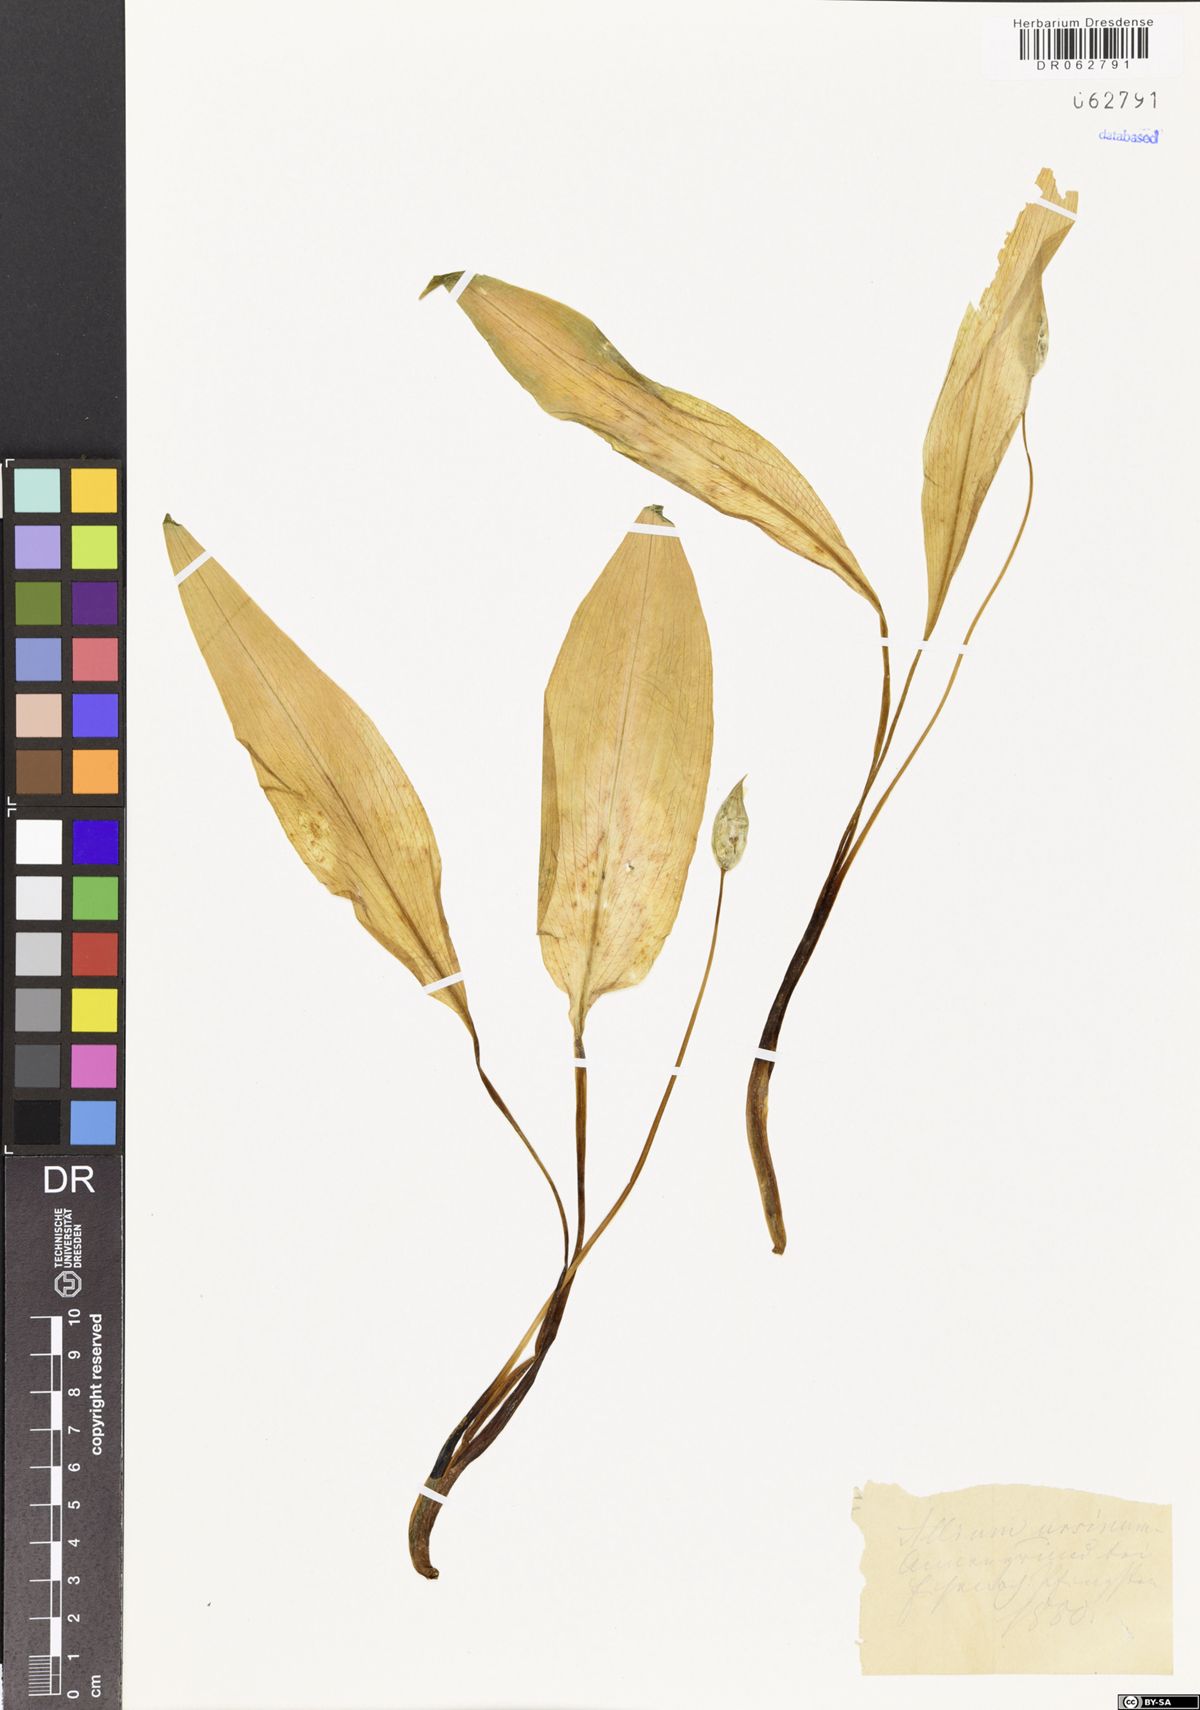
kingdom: Plantae
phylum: Tracheophyta
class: Liliopsida
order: Asparagales
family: Amaryllidaceae
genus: Allium
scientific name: Allium ursinum
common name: Ramsons
